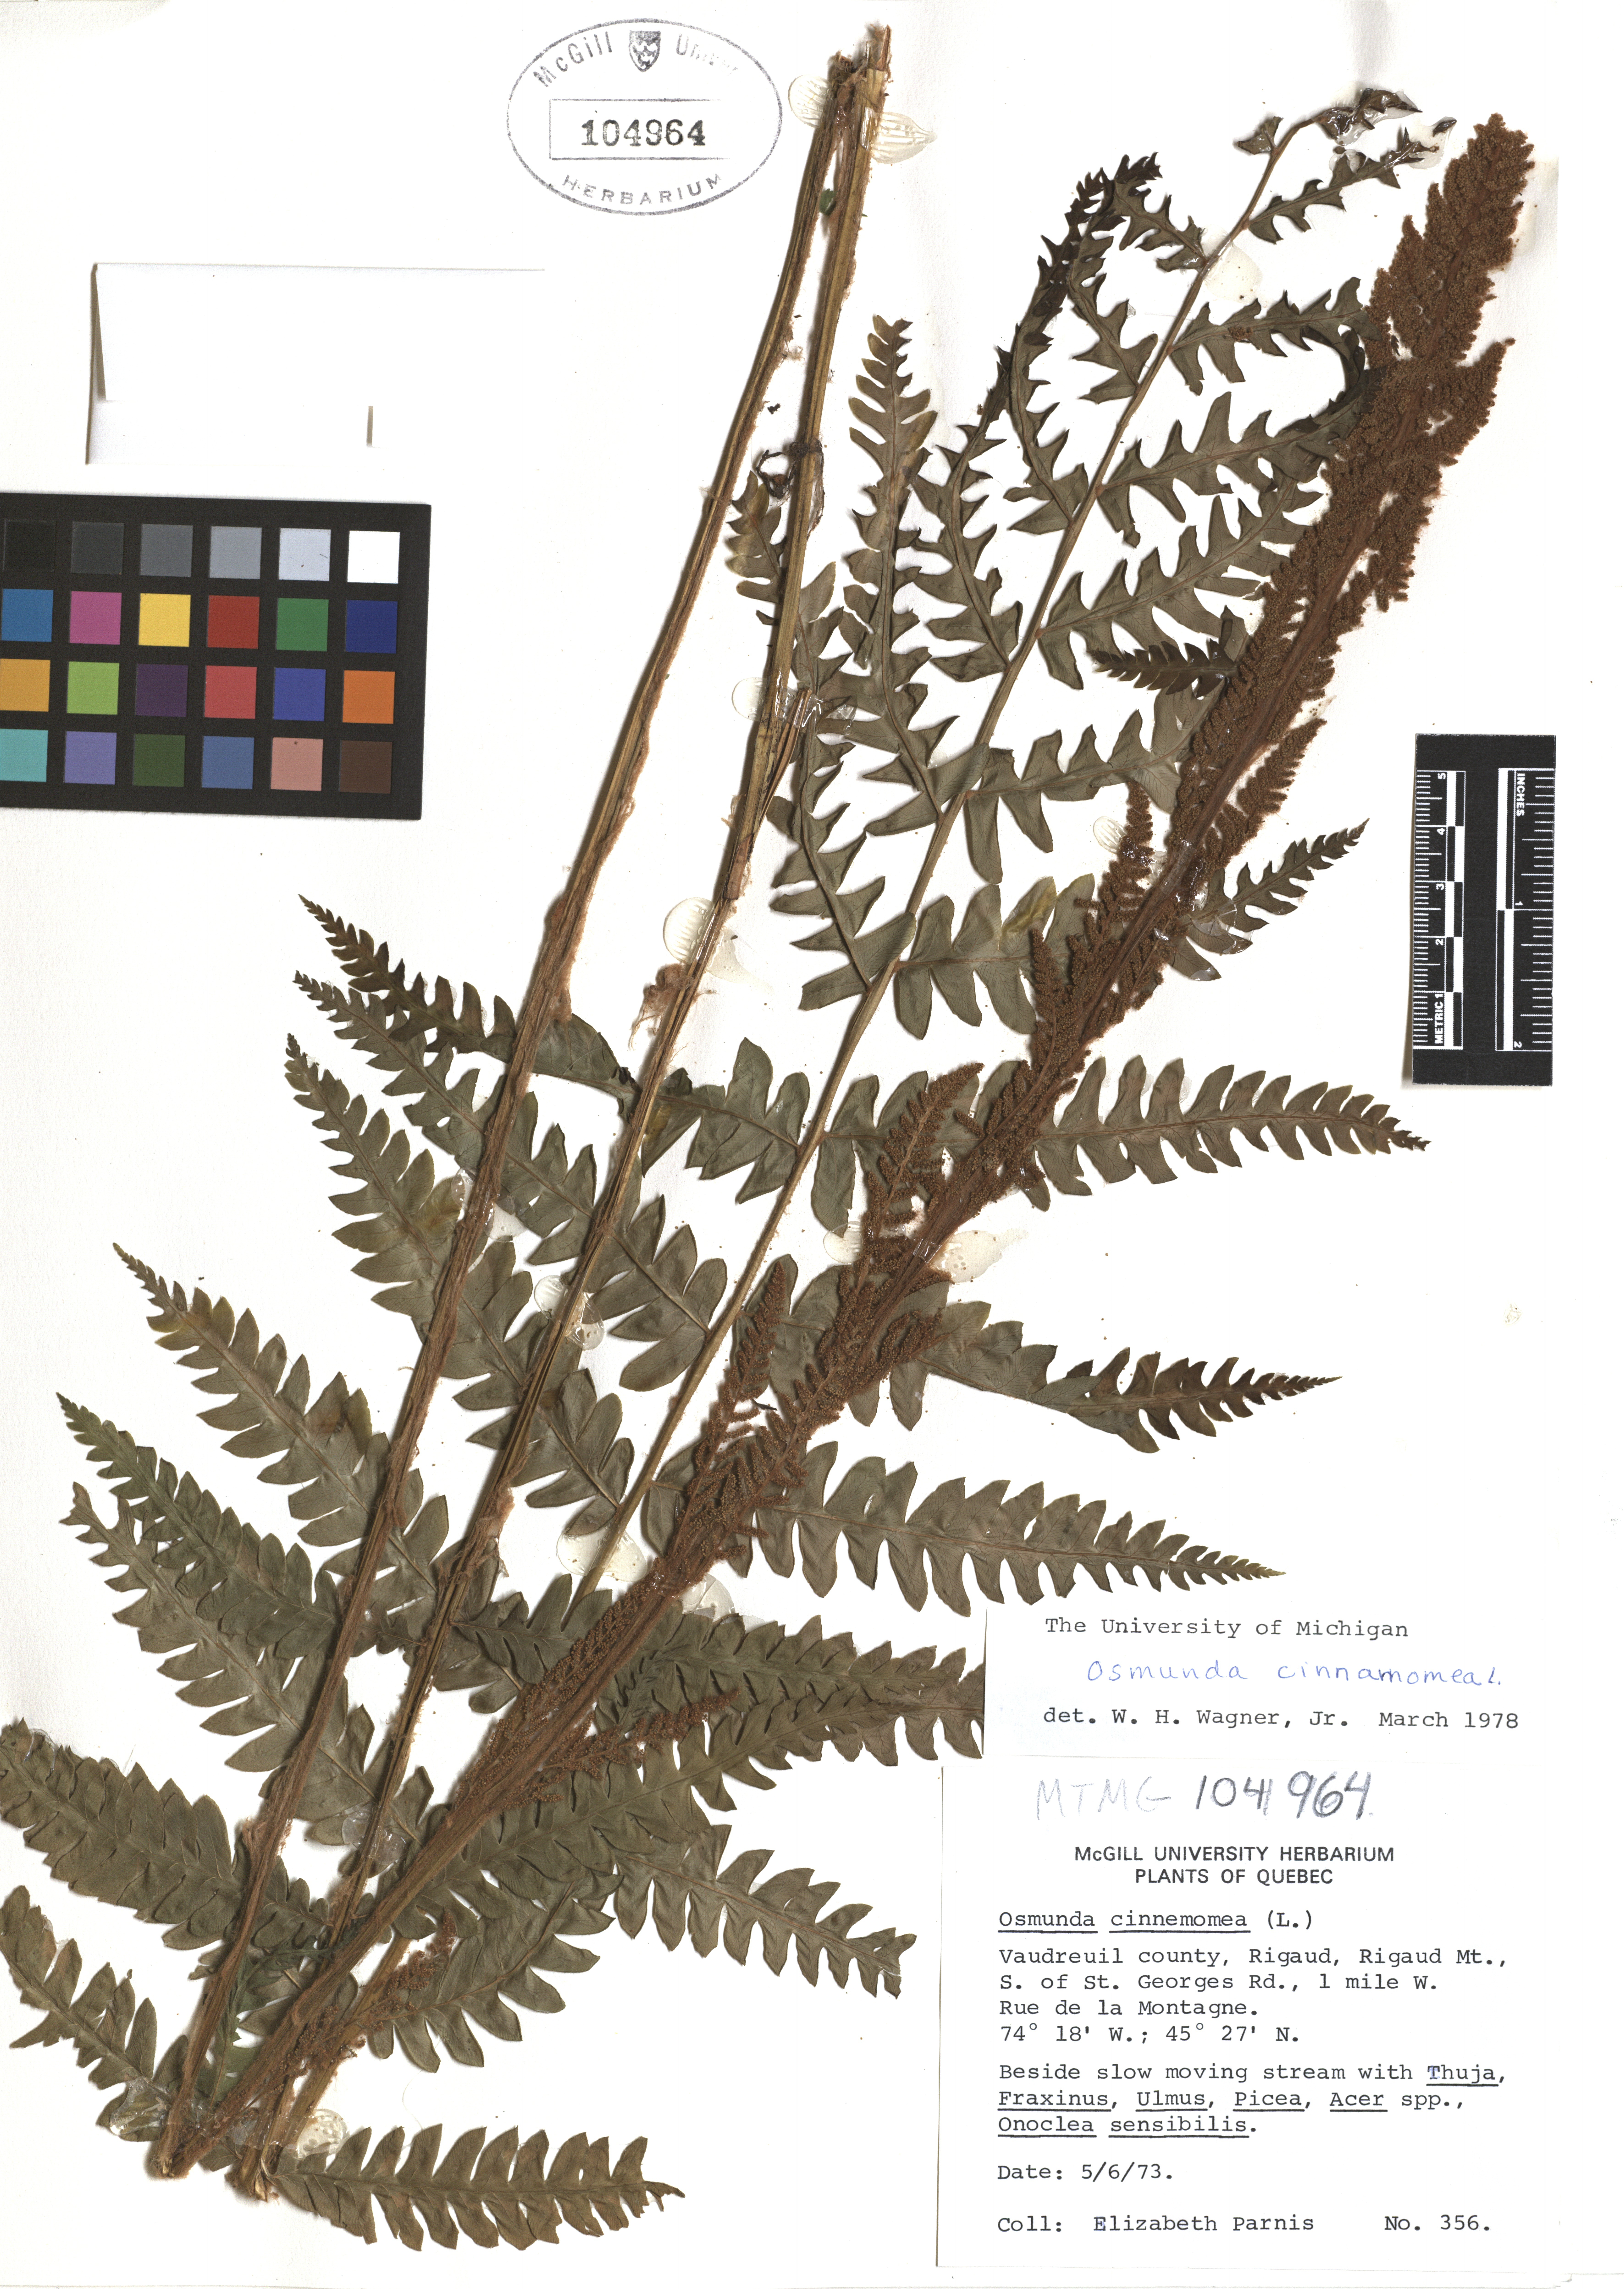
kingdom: Plantae
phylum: Tracheophyta
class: Polypodiopsida
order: Osmundales
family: Osmundaceae
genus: Osmundastrum
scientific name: Osmundastrum cinnamomeum
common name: Cinnamon fern
